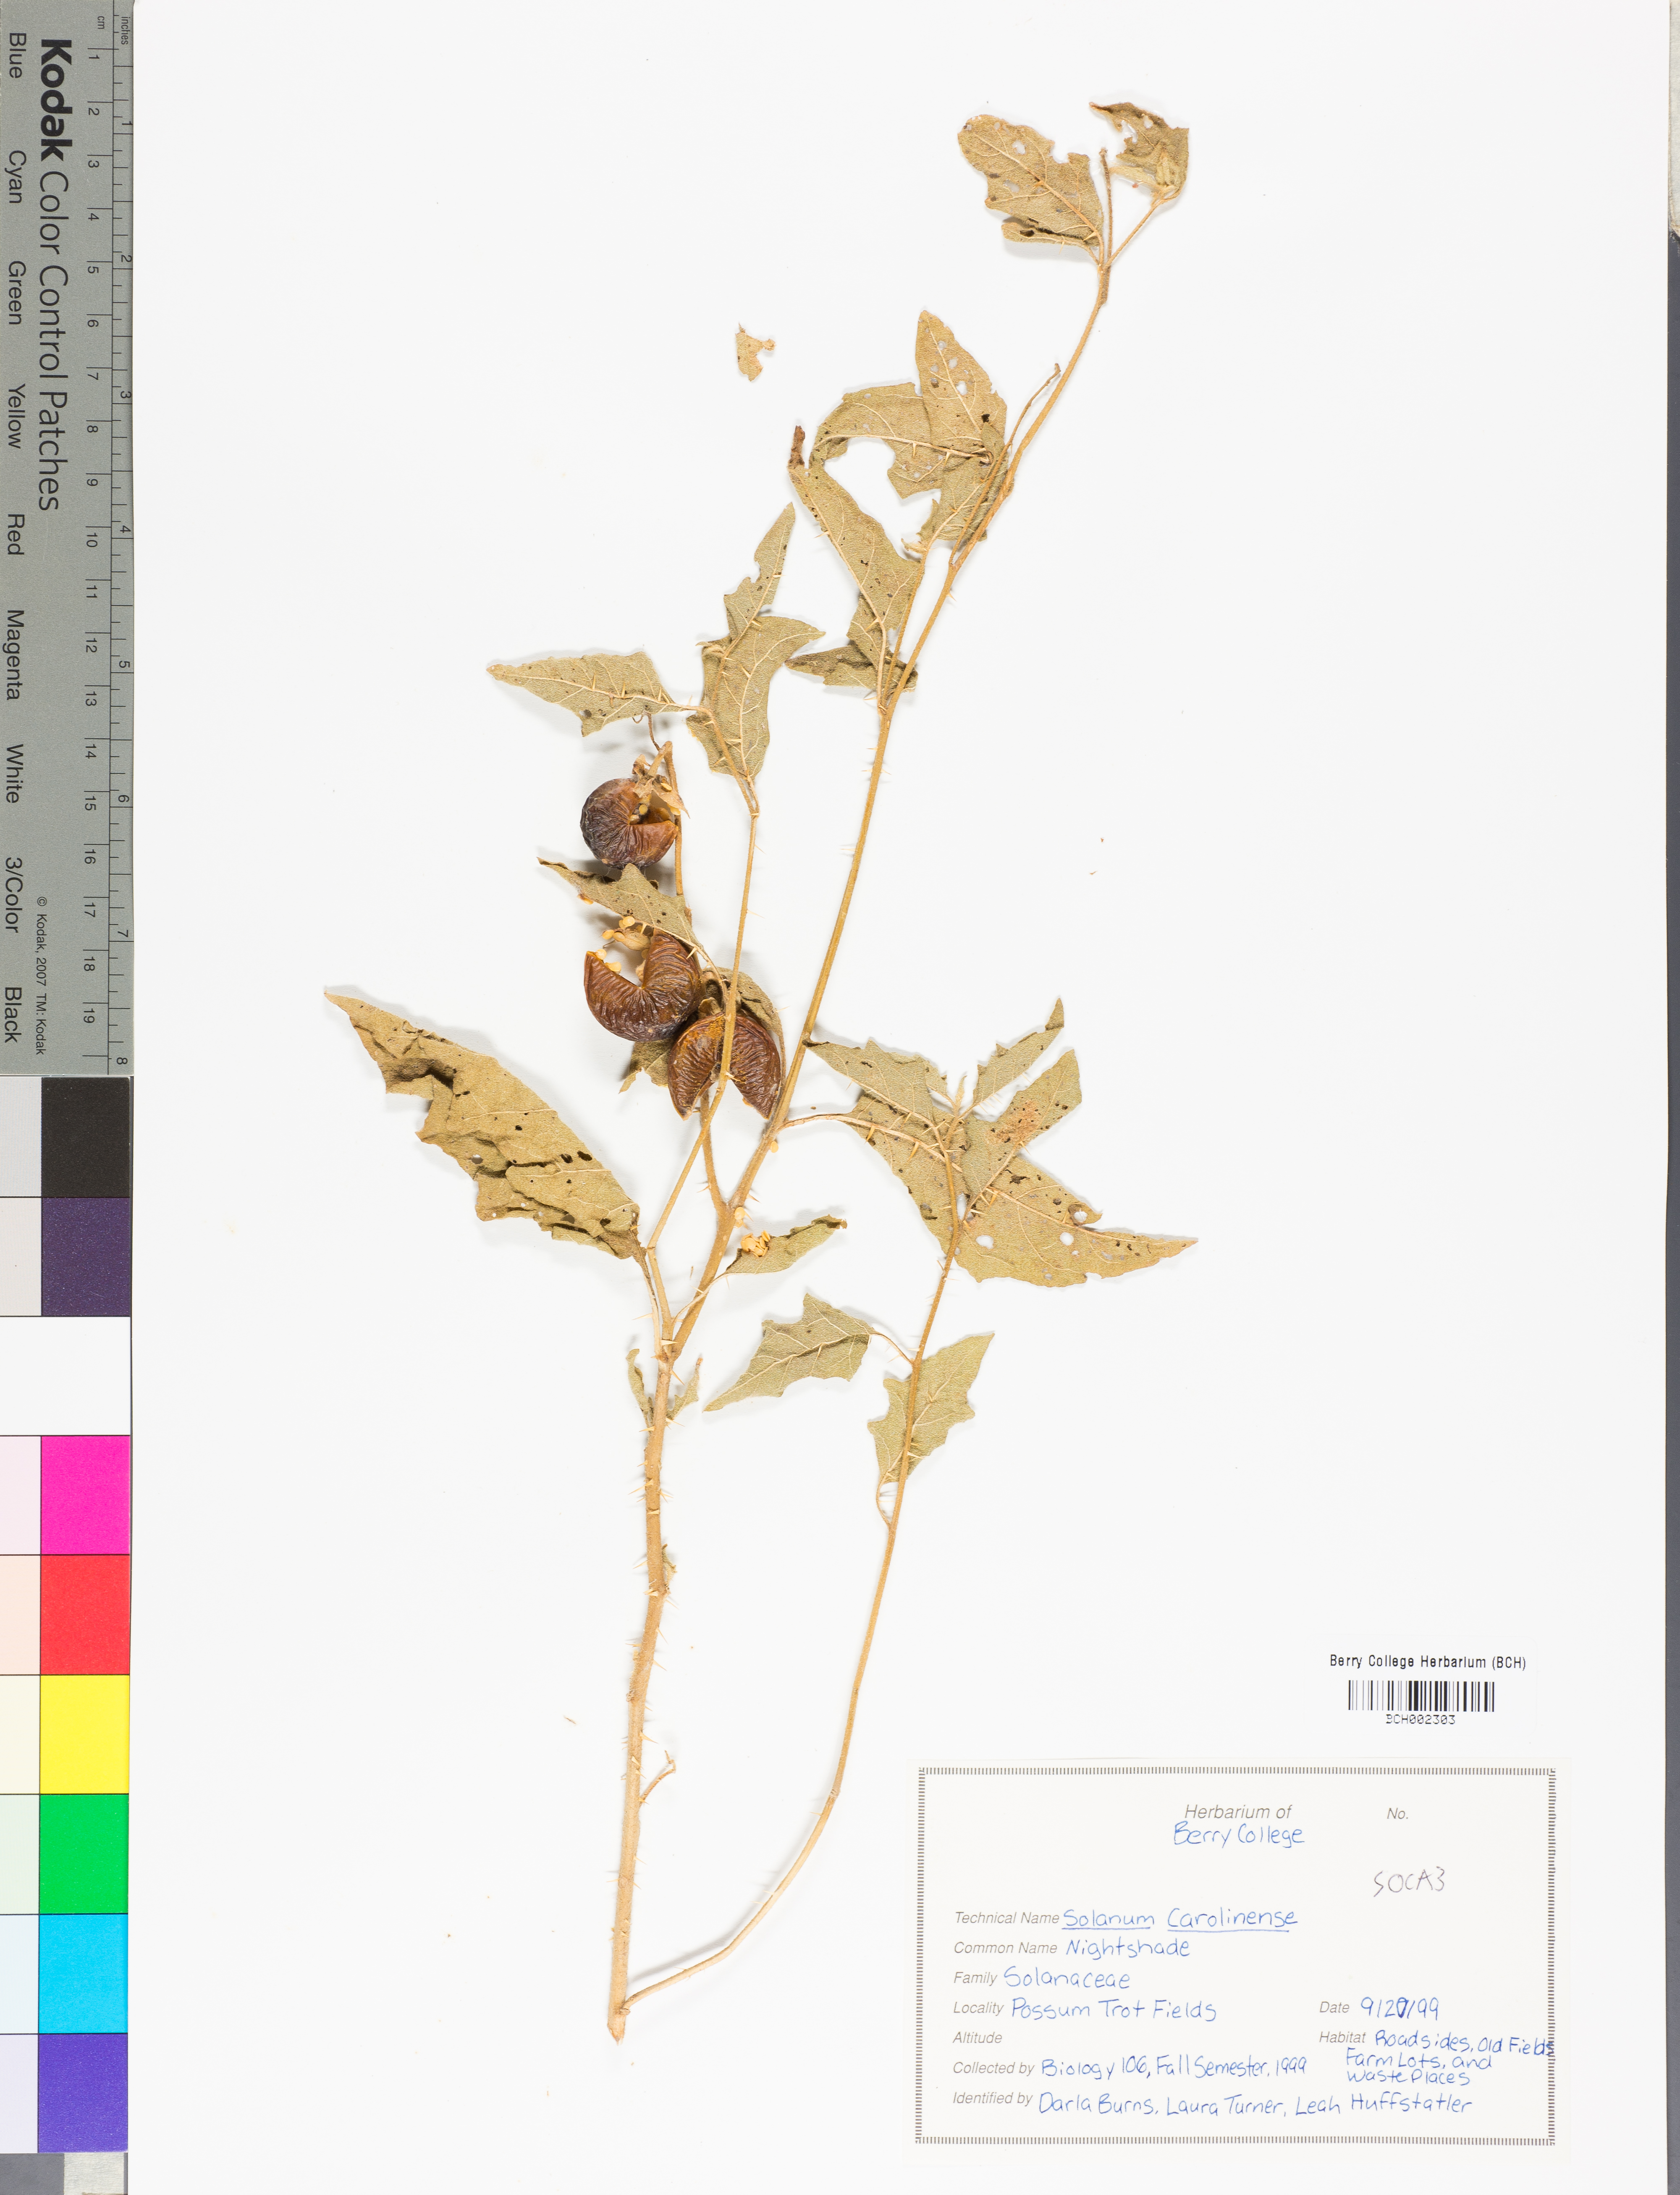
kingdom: Plantae
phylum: Tracheophyta
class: Magnoliopsida
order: Solanales
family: Solanaceae
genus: Solanum
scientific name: Solanum carolinense
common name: Horse-nettle
